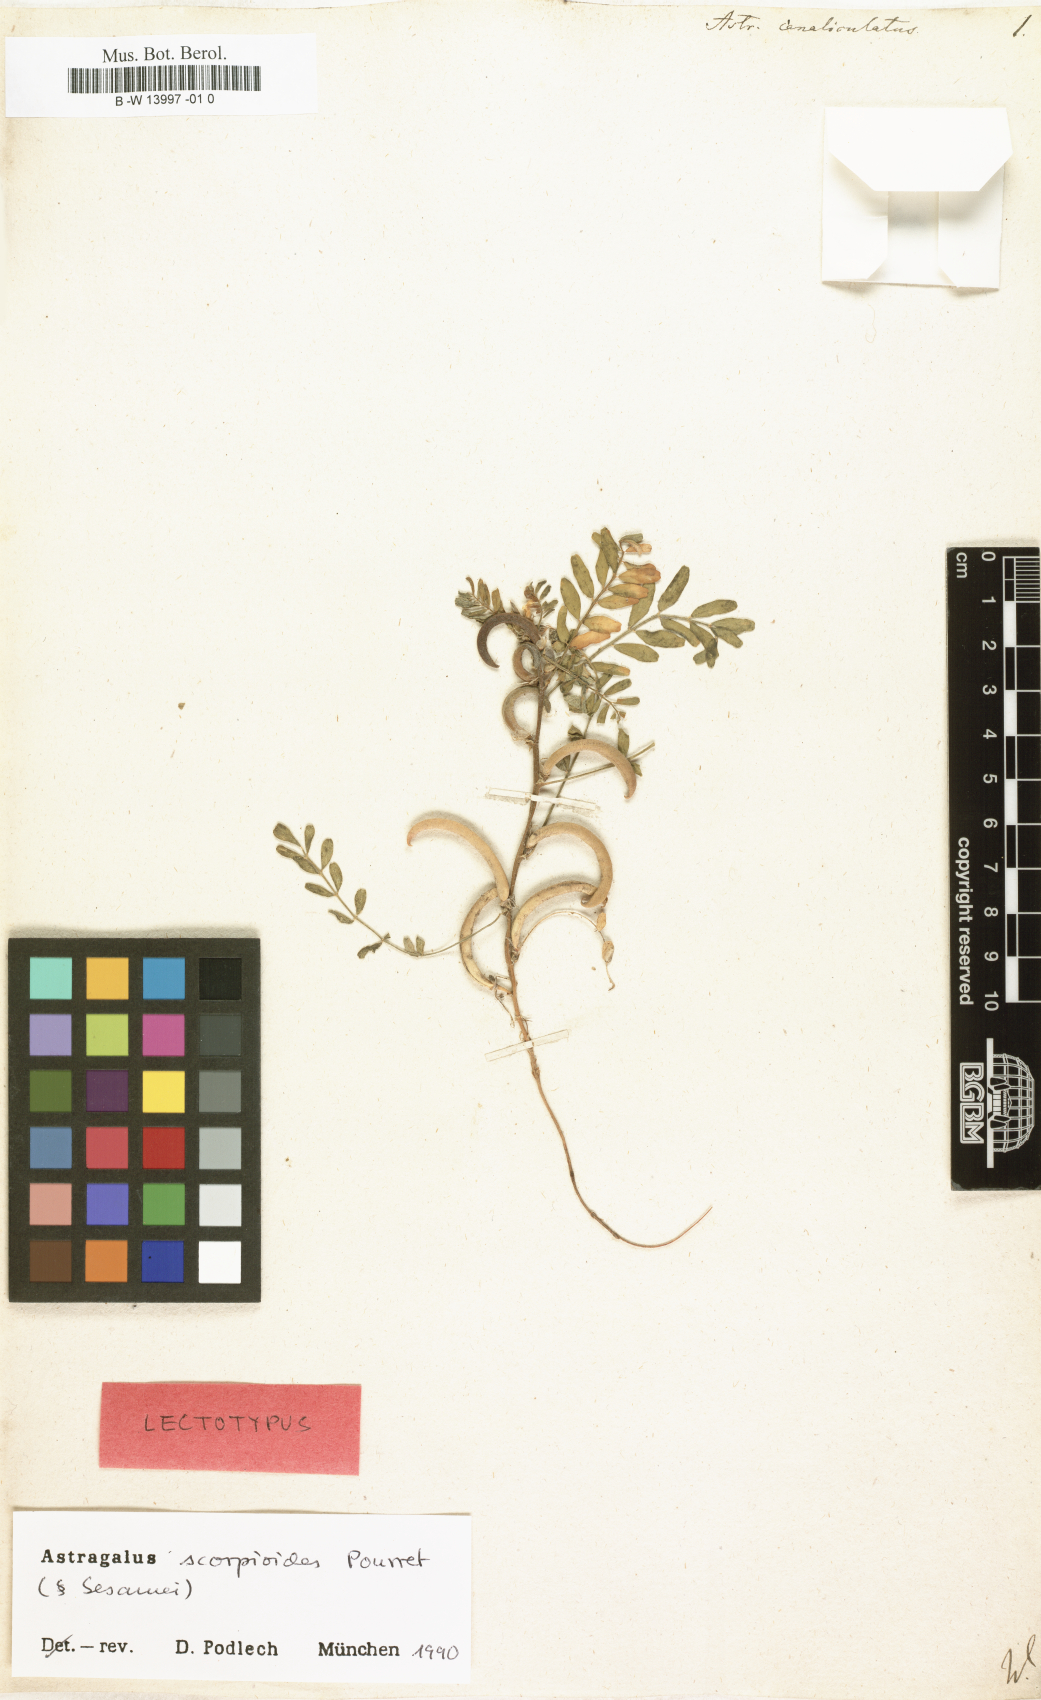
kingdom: Plantae
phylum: Tracheophyta
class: Magnoliopsida
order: Fabales
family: Fabaceae
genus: Astragalus
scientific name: Astragalus scorpioides
